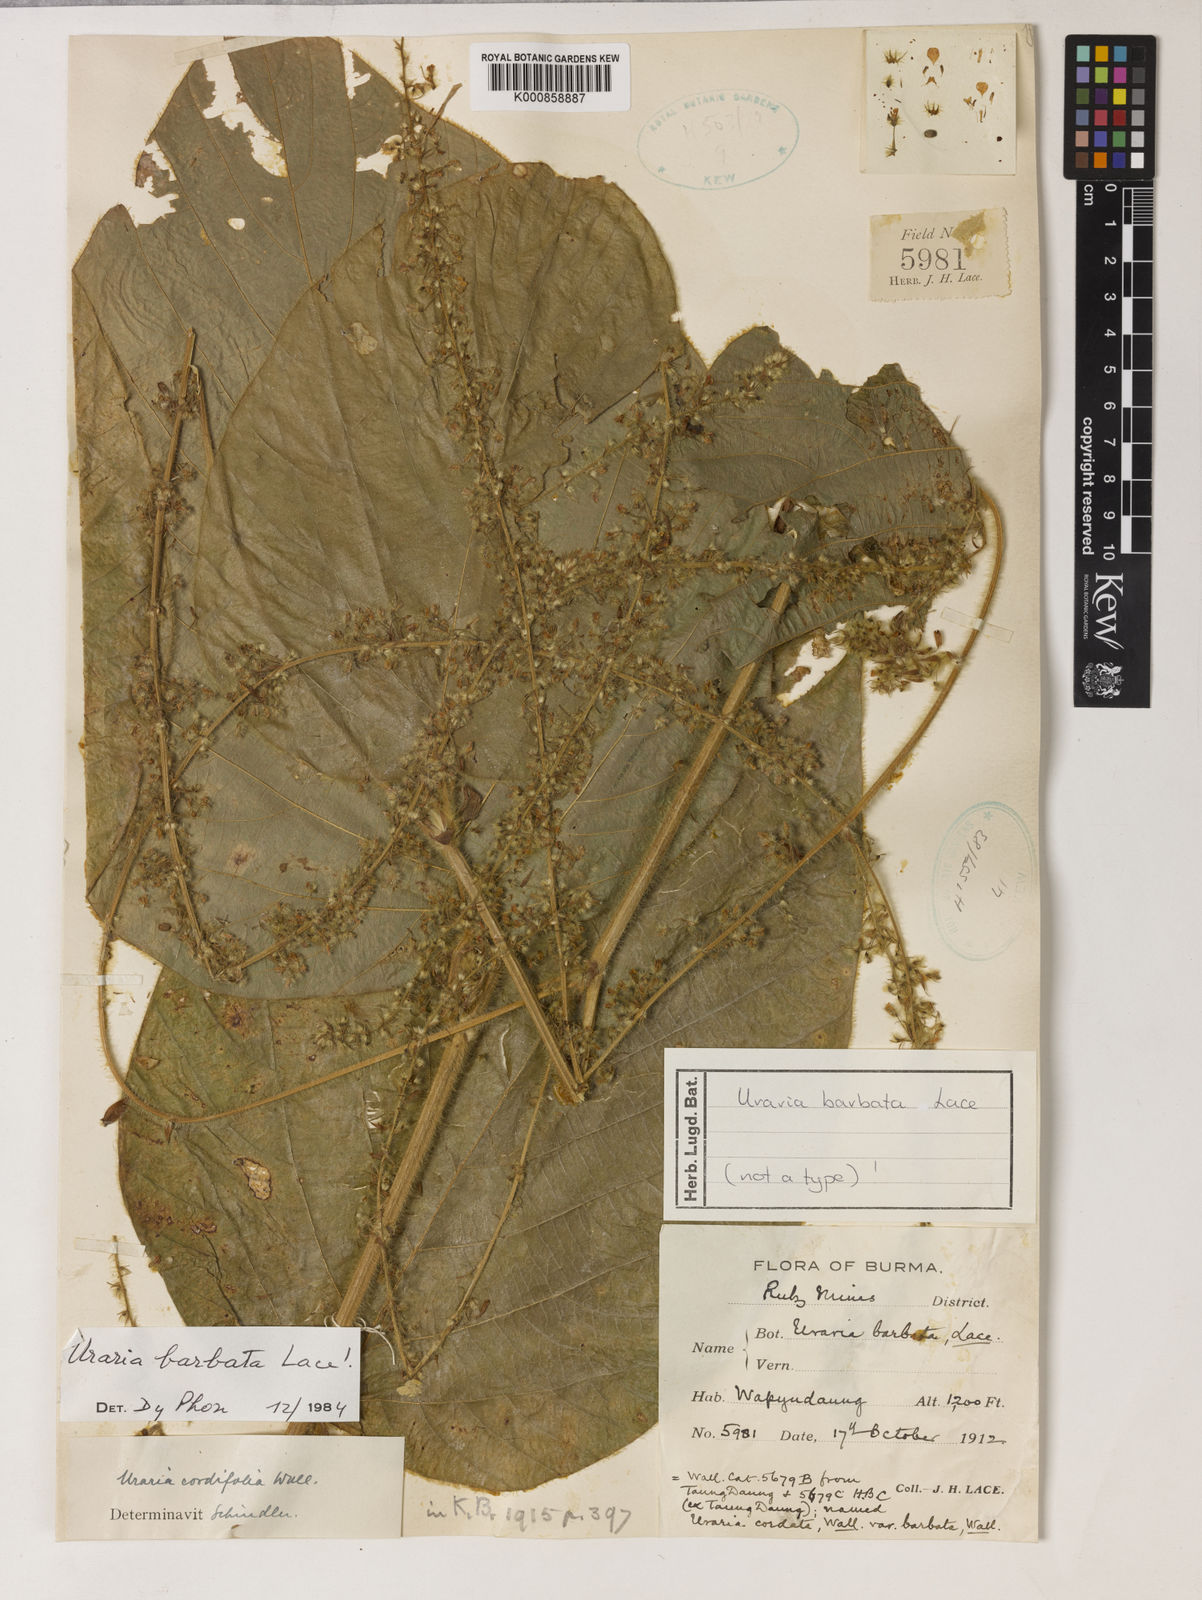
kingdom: Plantae
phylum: Tracheophyta
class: Magnoliopsida
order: Fabales
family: Fabaceae
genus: Sohmaea
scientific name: Sohmaea barbaticaulis
